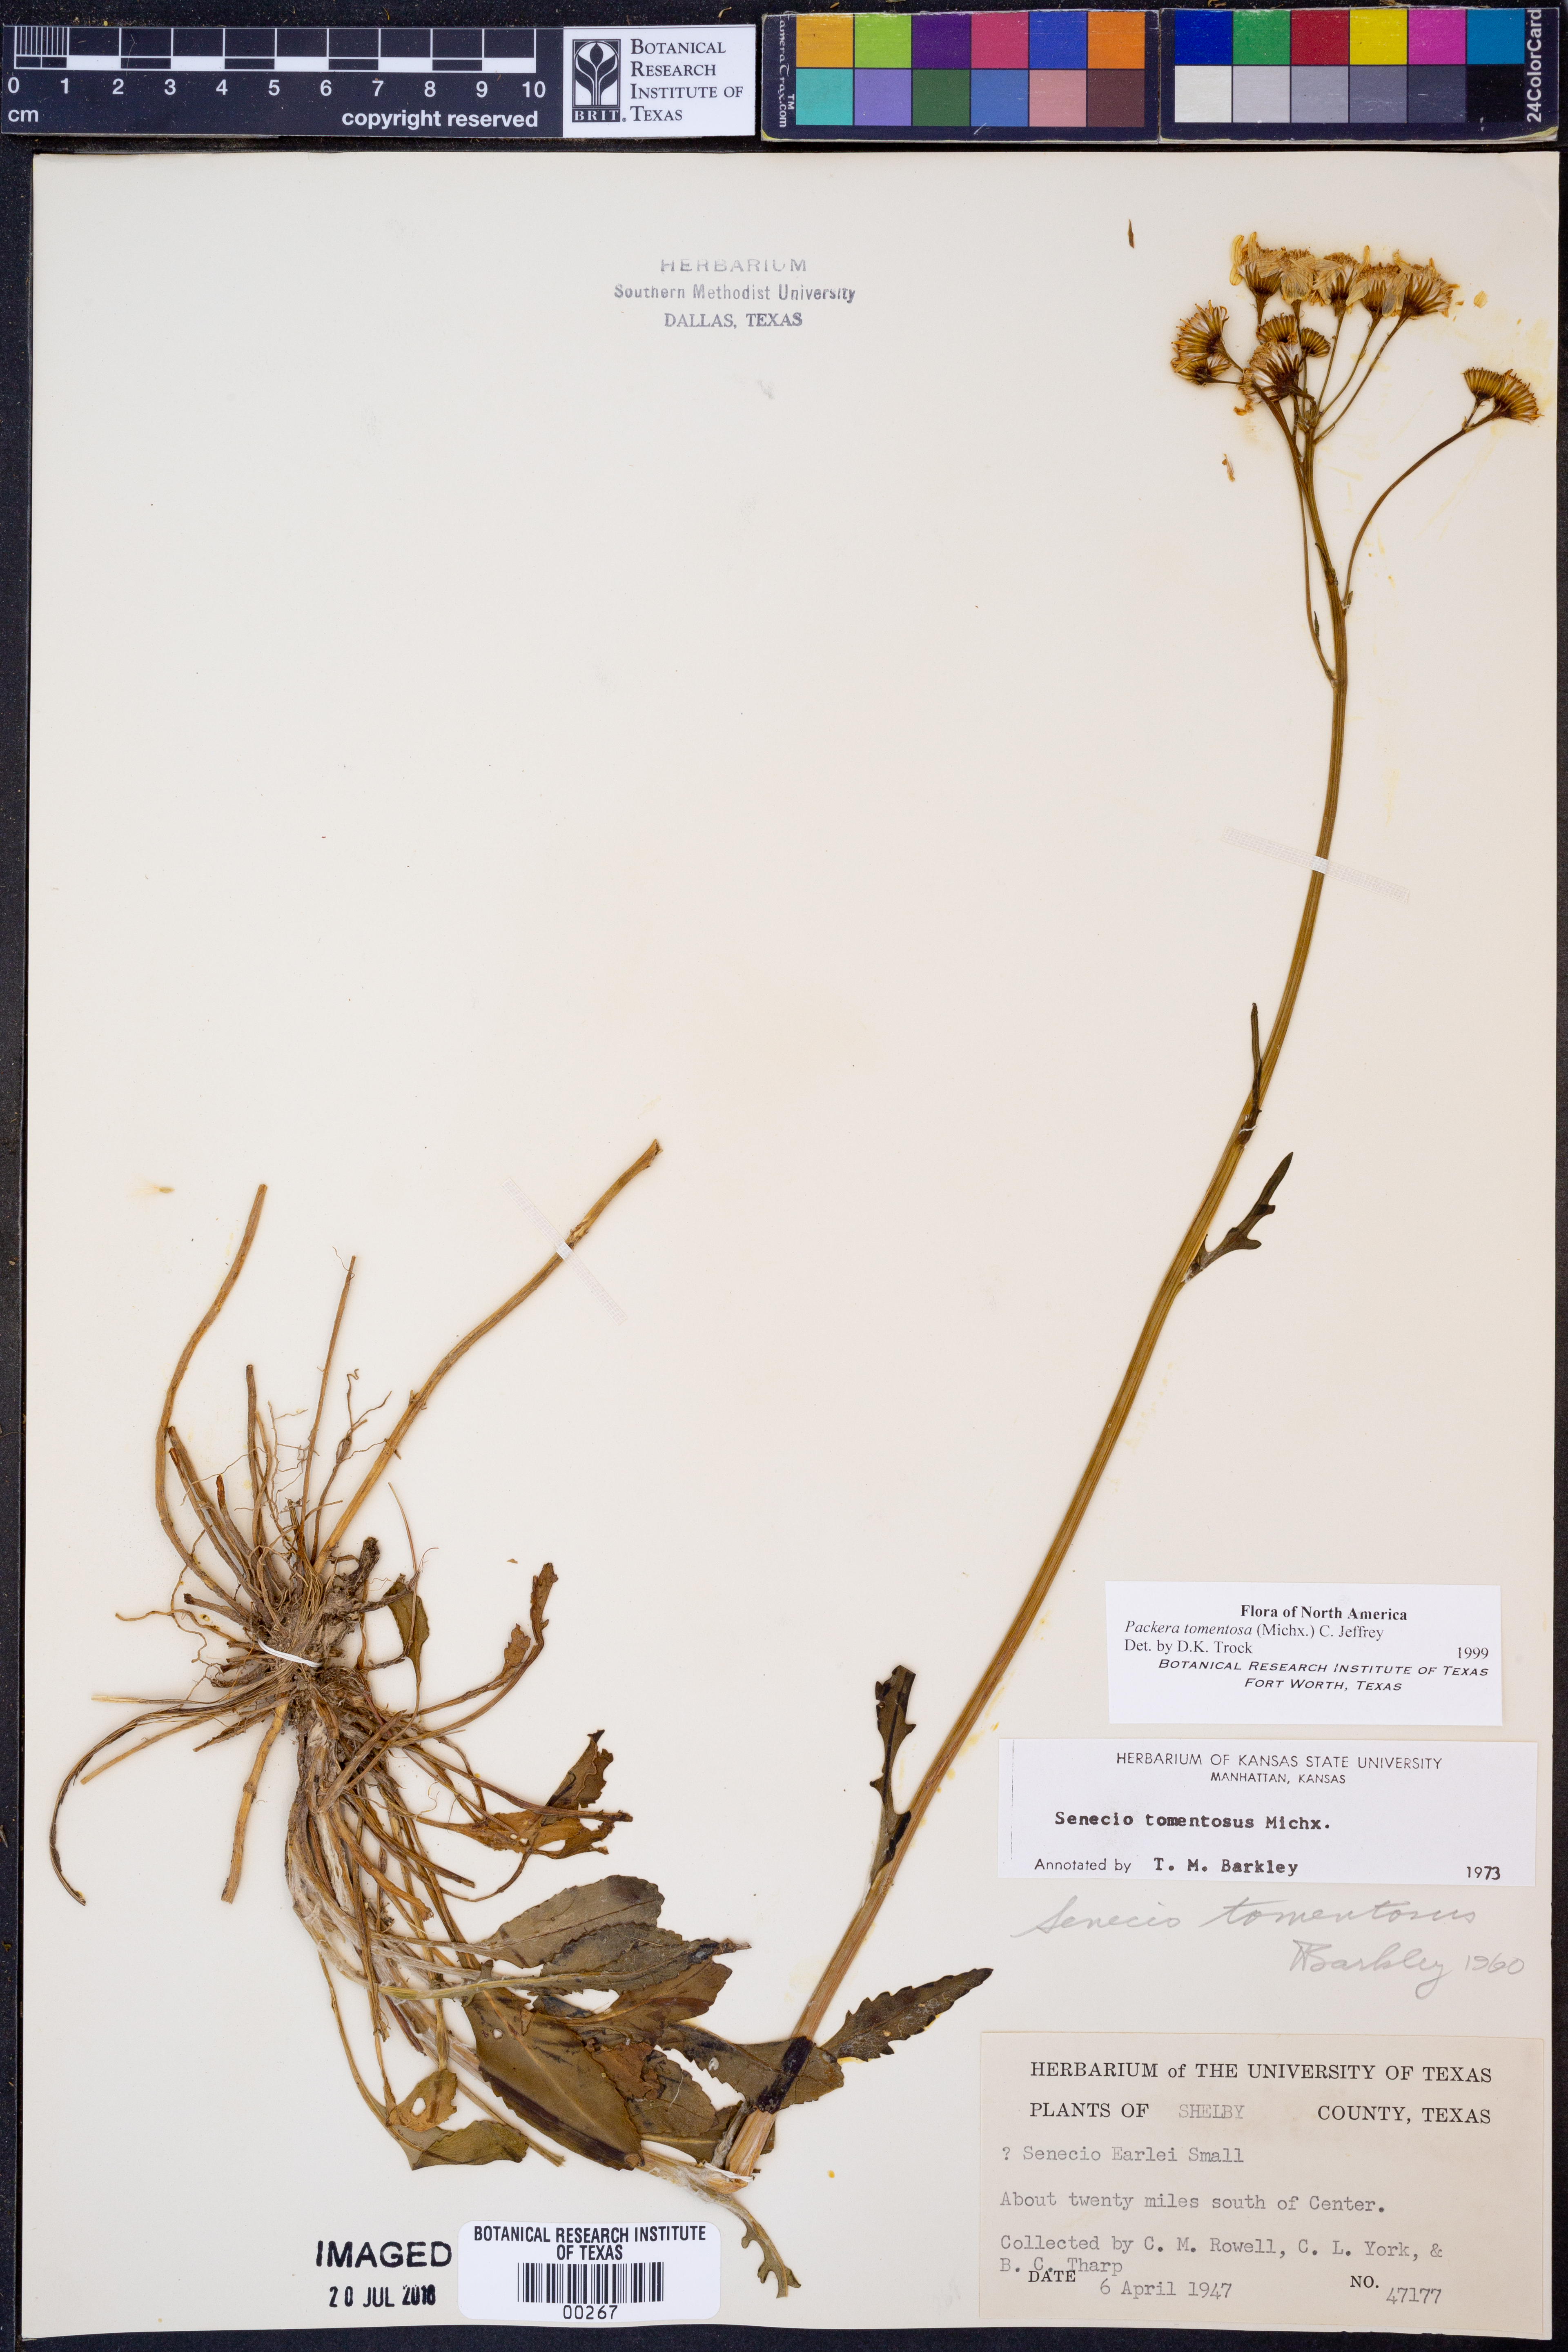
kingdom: Plantae
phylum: Tracheophyta
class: Magnoliopsida
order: Asterales
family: Asteraceae
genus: Packera
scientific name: Packera dubia
